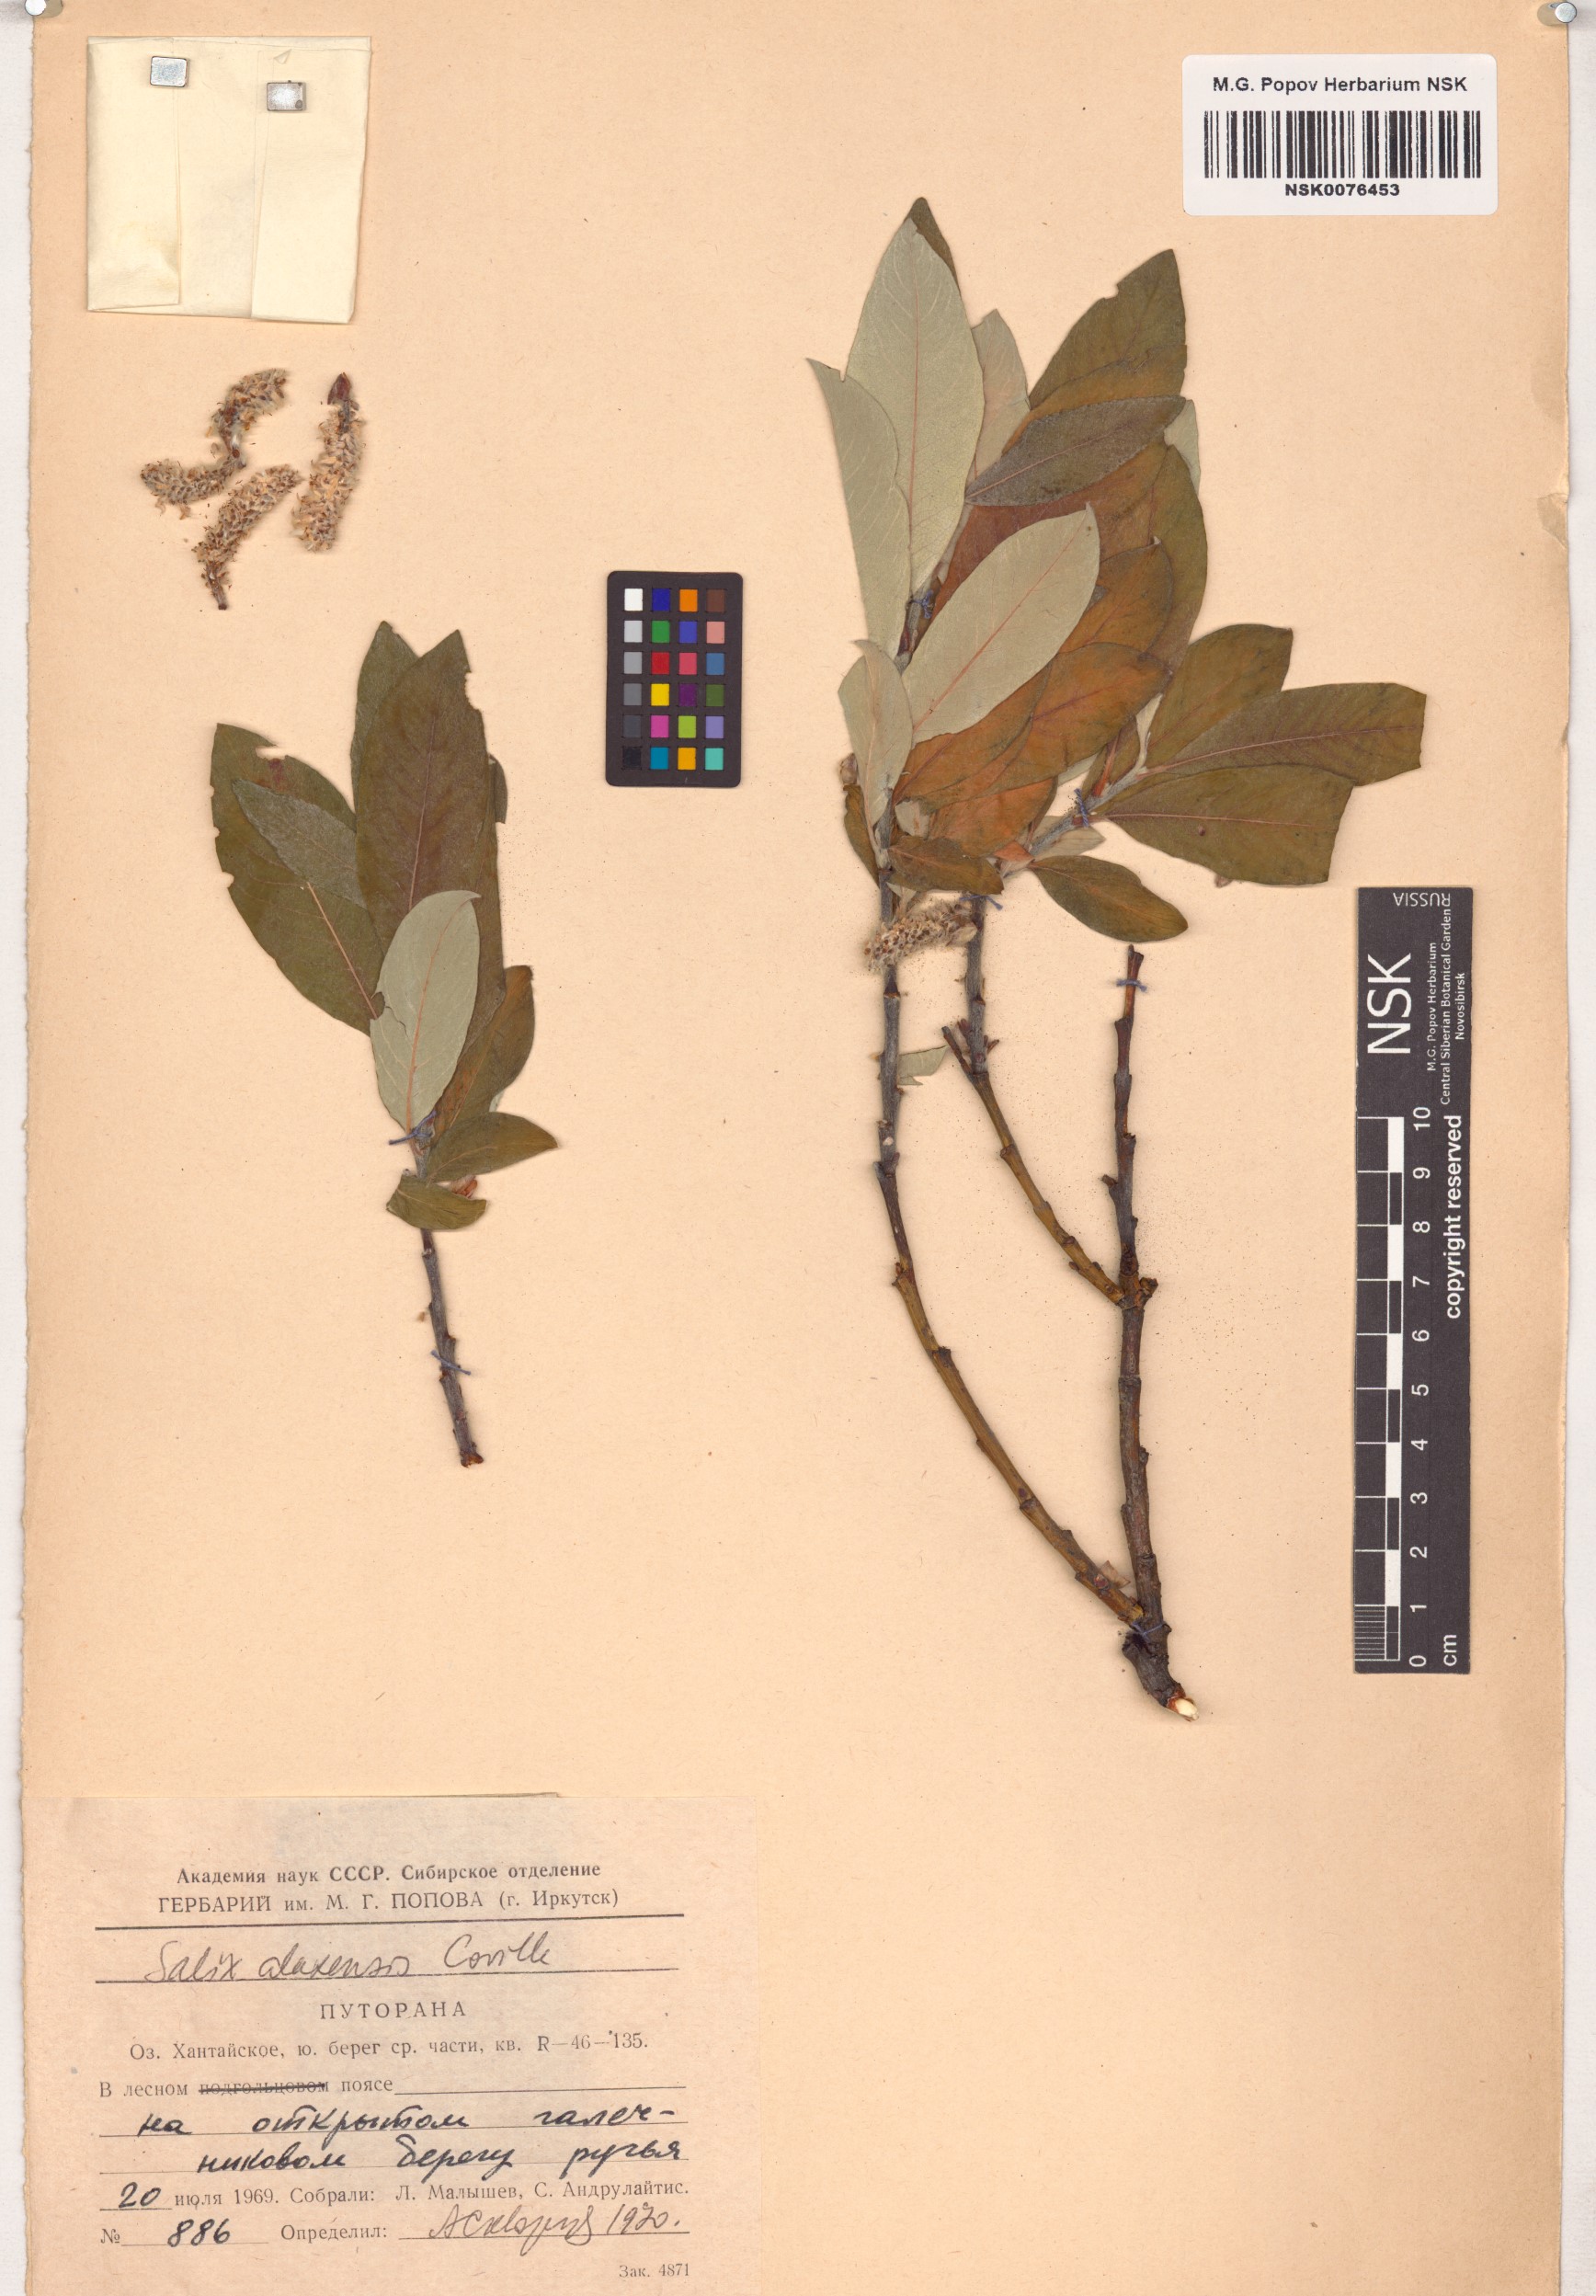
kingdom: Plantae
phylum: Tracheophyta
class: Magnoliopsida
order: Malpighiales
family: Salicaceae
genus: Salix
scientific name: Salix alaxensis
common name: Feltleaf willow
